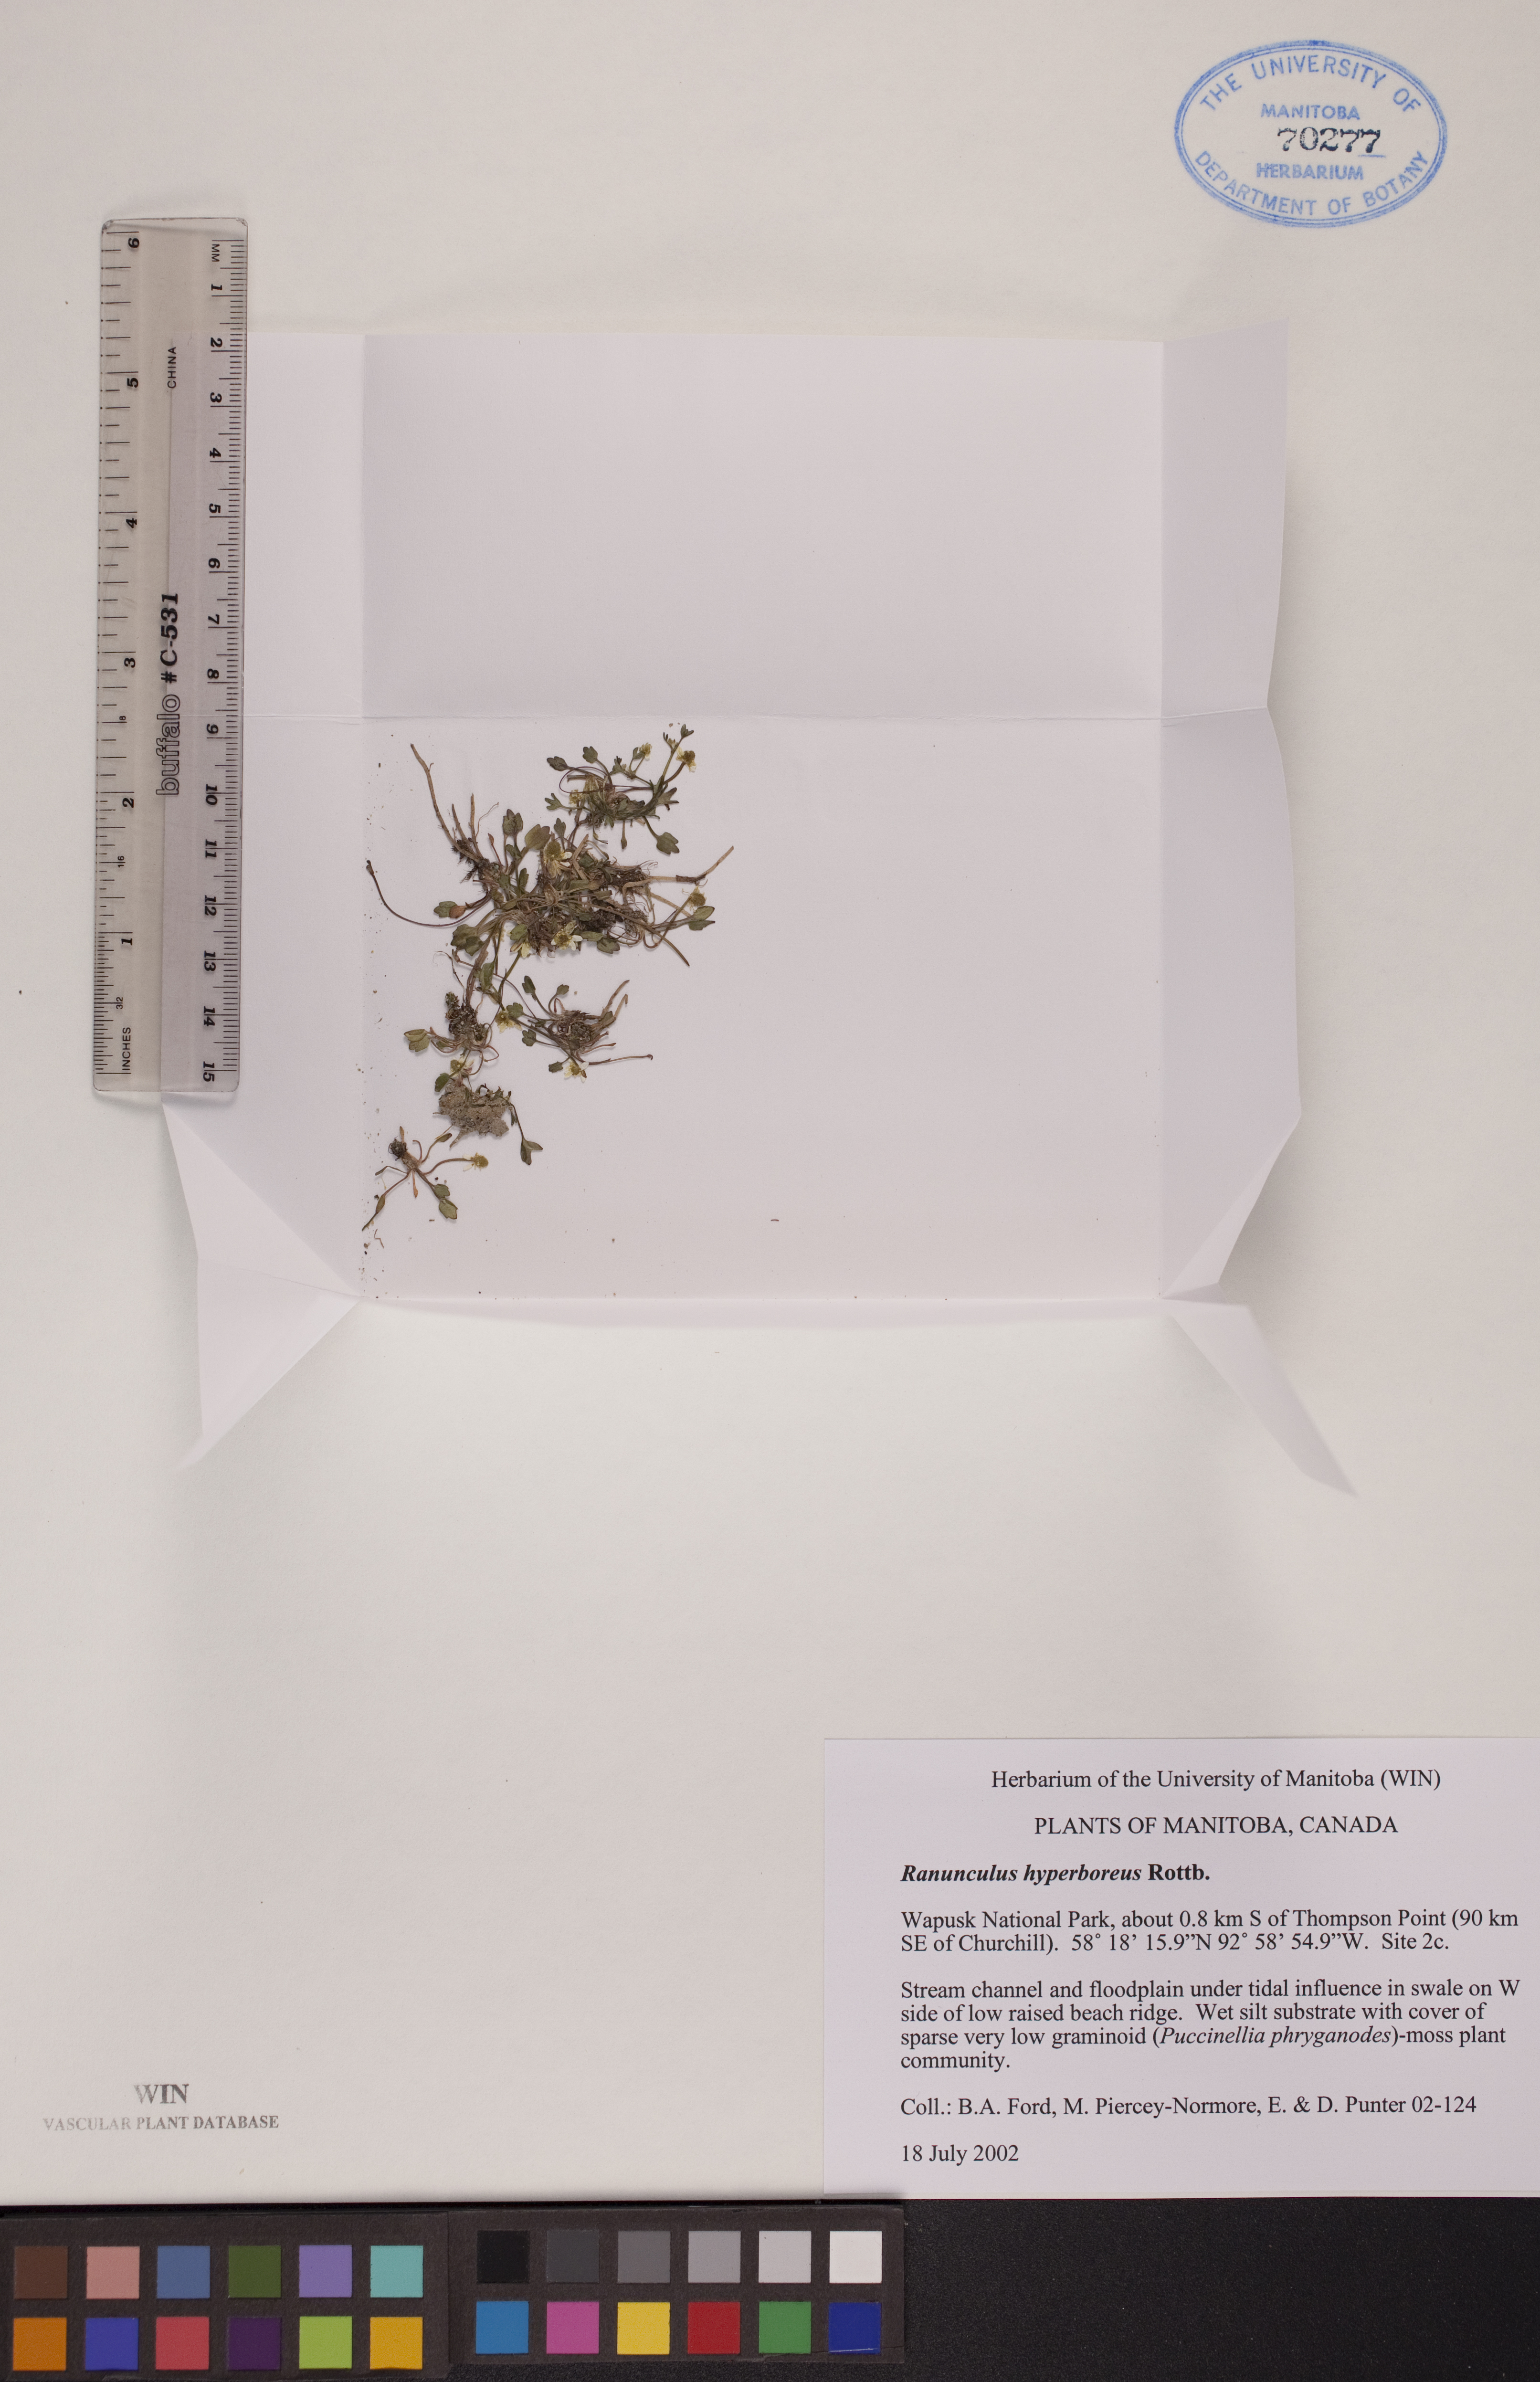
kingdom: Plantae
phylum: Tracheophyta
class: Magnoliopsida
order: Ranunculales
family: Ranunculaceae
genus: Ranunculus
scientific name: Ranunculus hyperboreus
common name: Arctic buttercup
